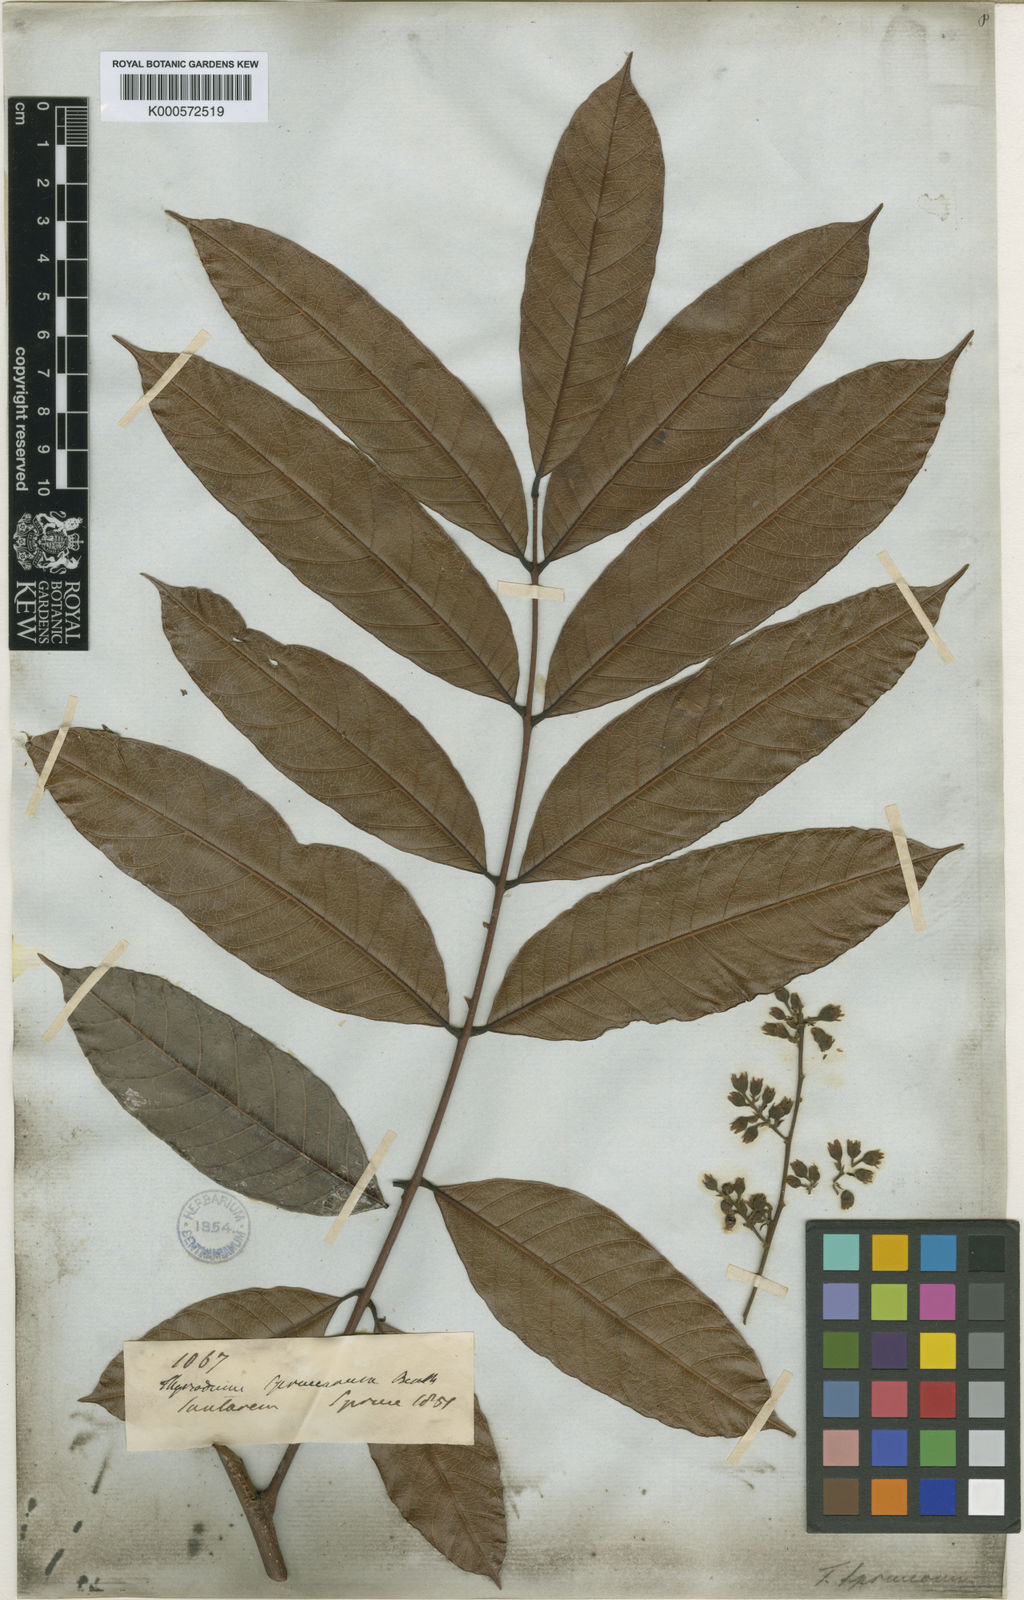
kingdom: Plantae
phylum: Tracheophyta
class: Magnoliopsida
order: Sapindales
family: Anacardiaceae
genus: Thyrsodium
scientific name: Thyrsodium spruceanum
